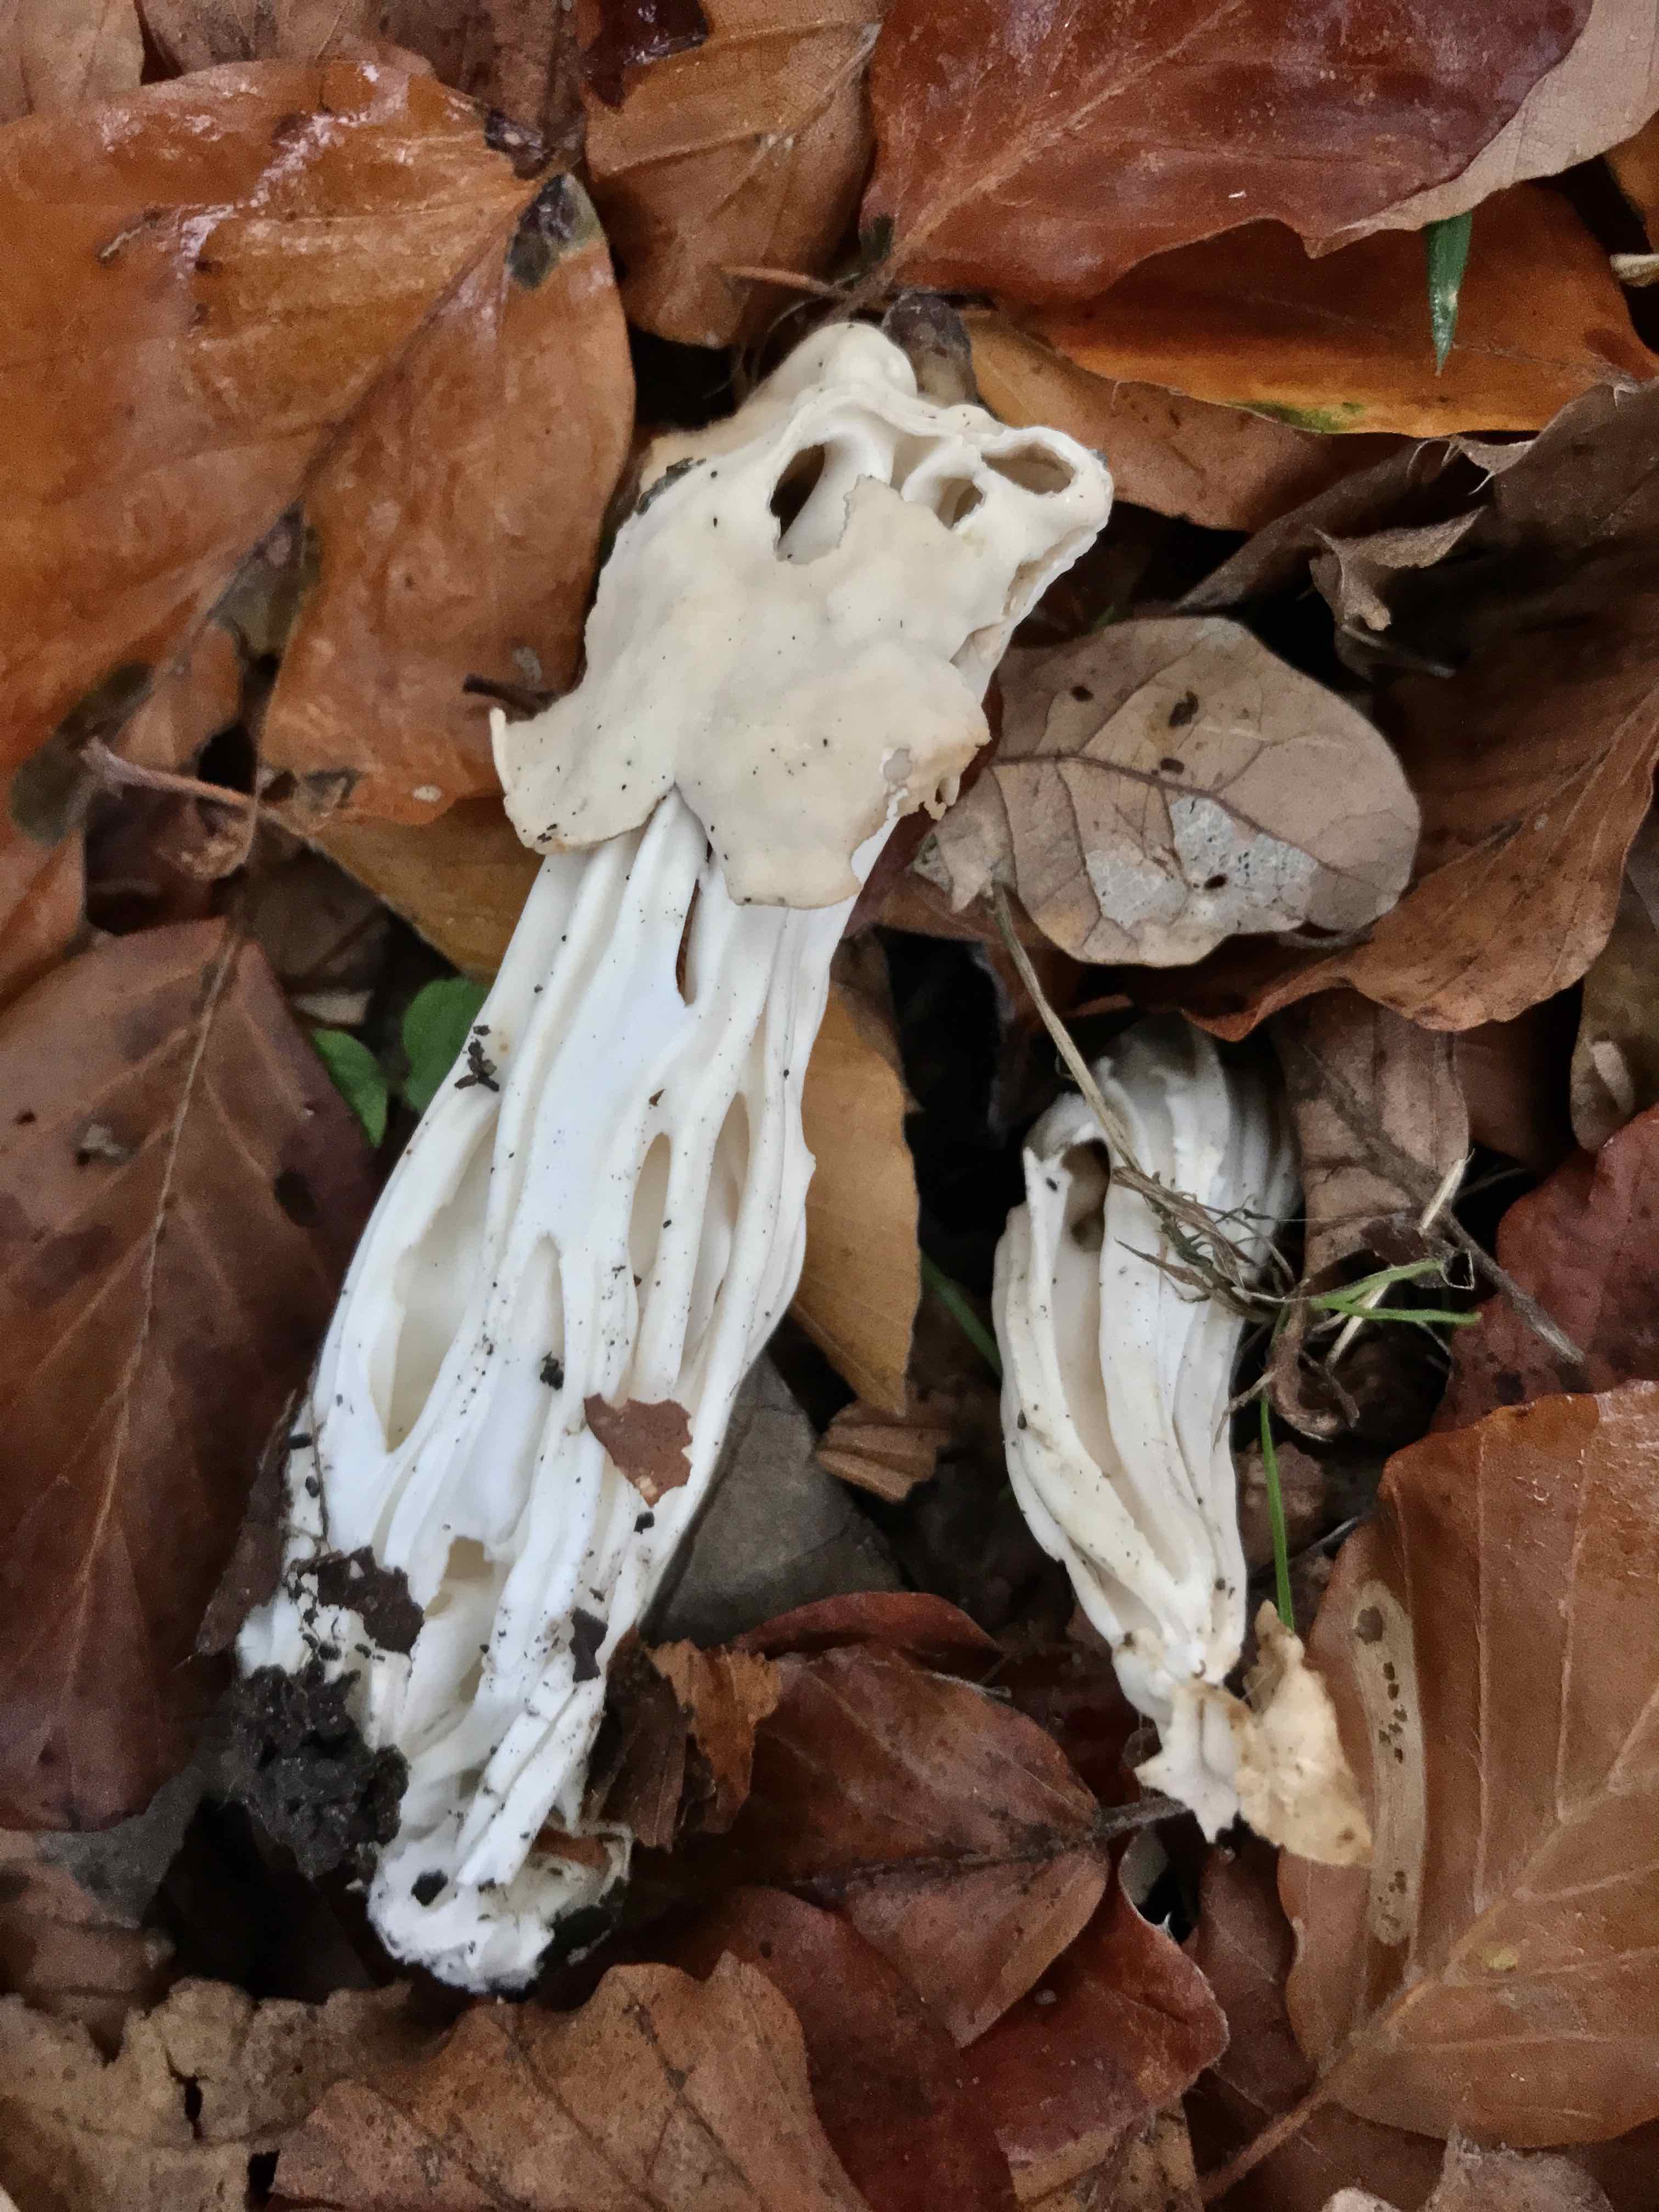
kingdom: Fungi
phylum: Ascomycota
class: Pezizomycetes
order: Pezizales
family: Helvellaceae
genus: Helvella
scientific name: Helvella crispa
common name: kruset foldhat
